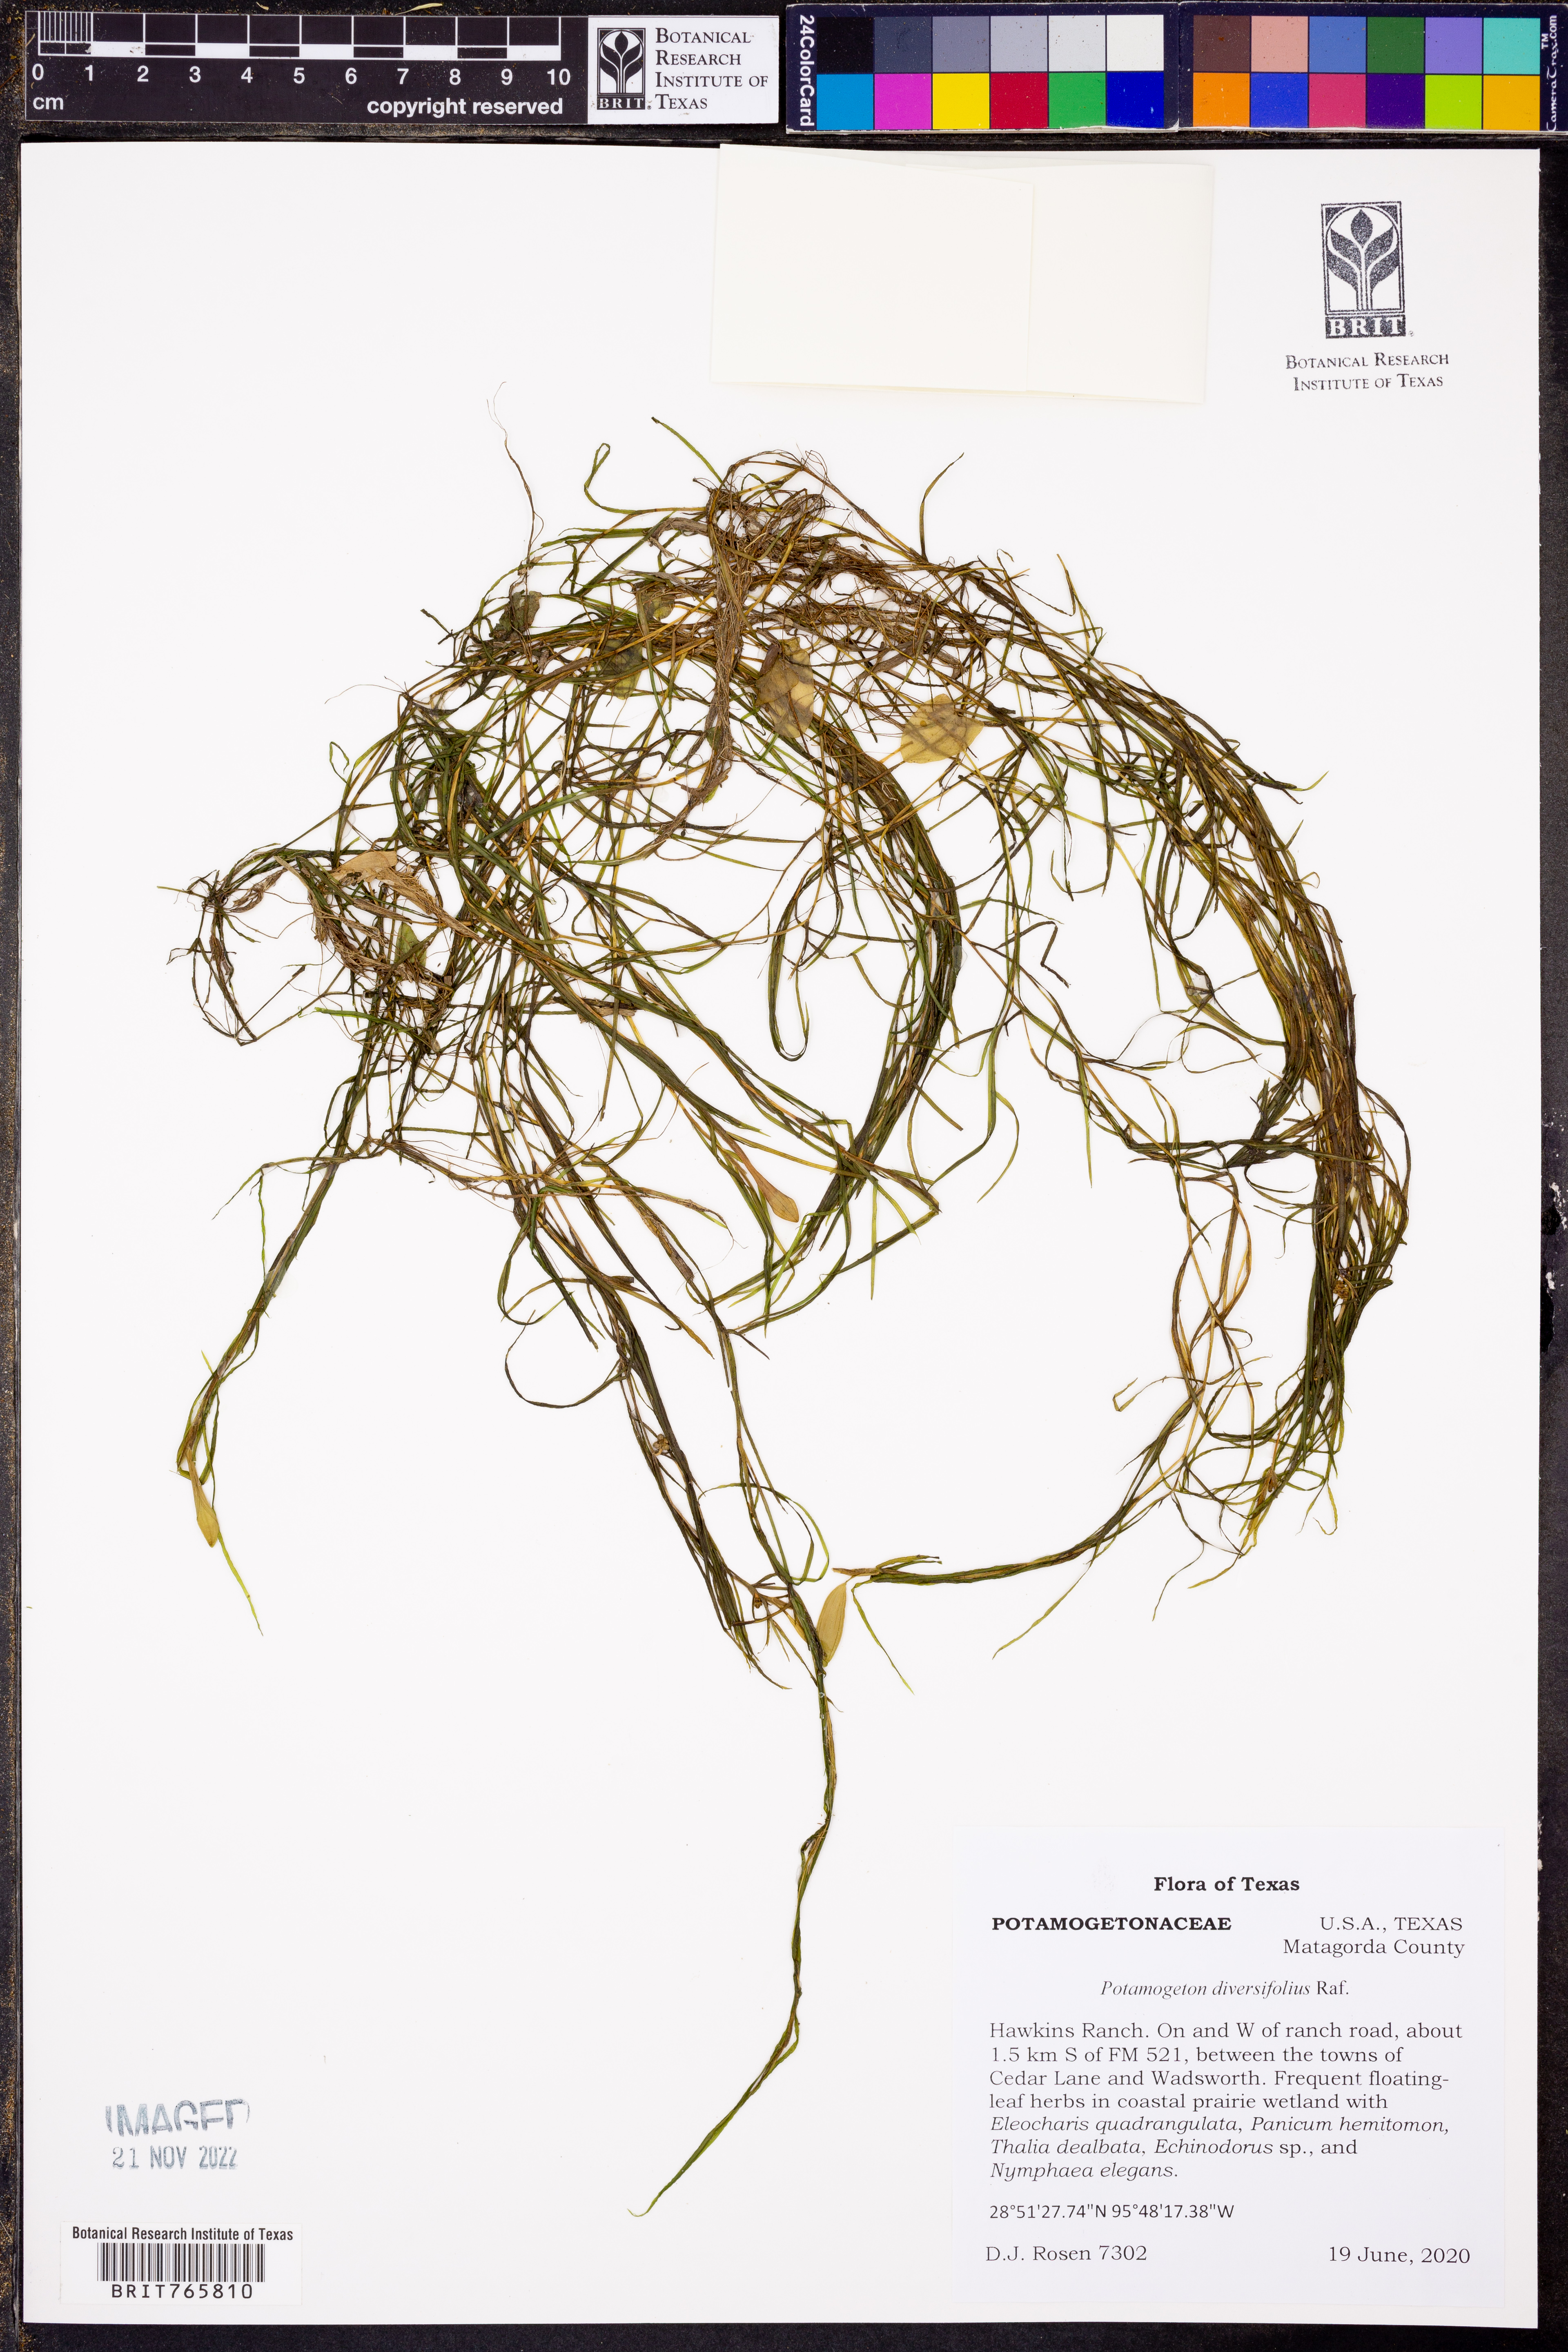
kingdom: Plantae
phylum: Tracheophyta
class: Liliopsida
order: Alismatales
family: Potamogetonaceae
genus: Potamogeton
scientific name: Potamogeton diversifolius
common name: Water-thread pondweed
